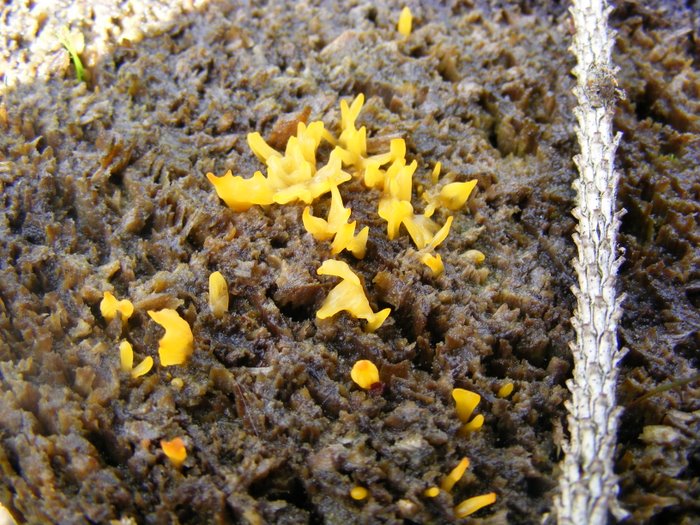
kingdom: Fungi
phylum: Basidiomycota
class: Dacrymycetes
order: Dacrymycetales
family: Dacrymycetaceae
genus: Calocera
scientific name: Calocera furcata
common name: fyrre-guldgaffel
